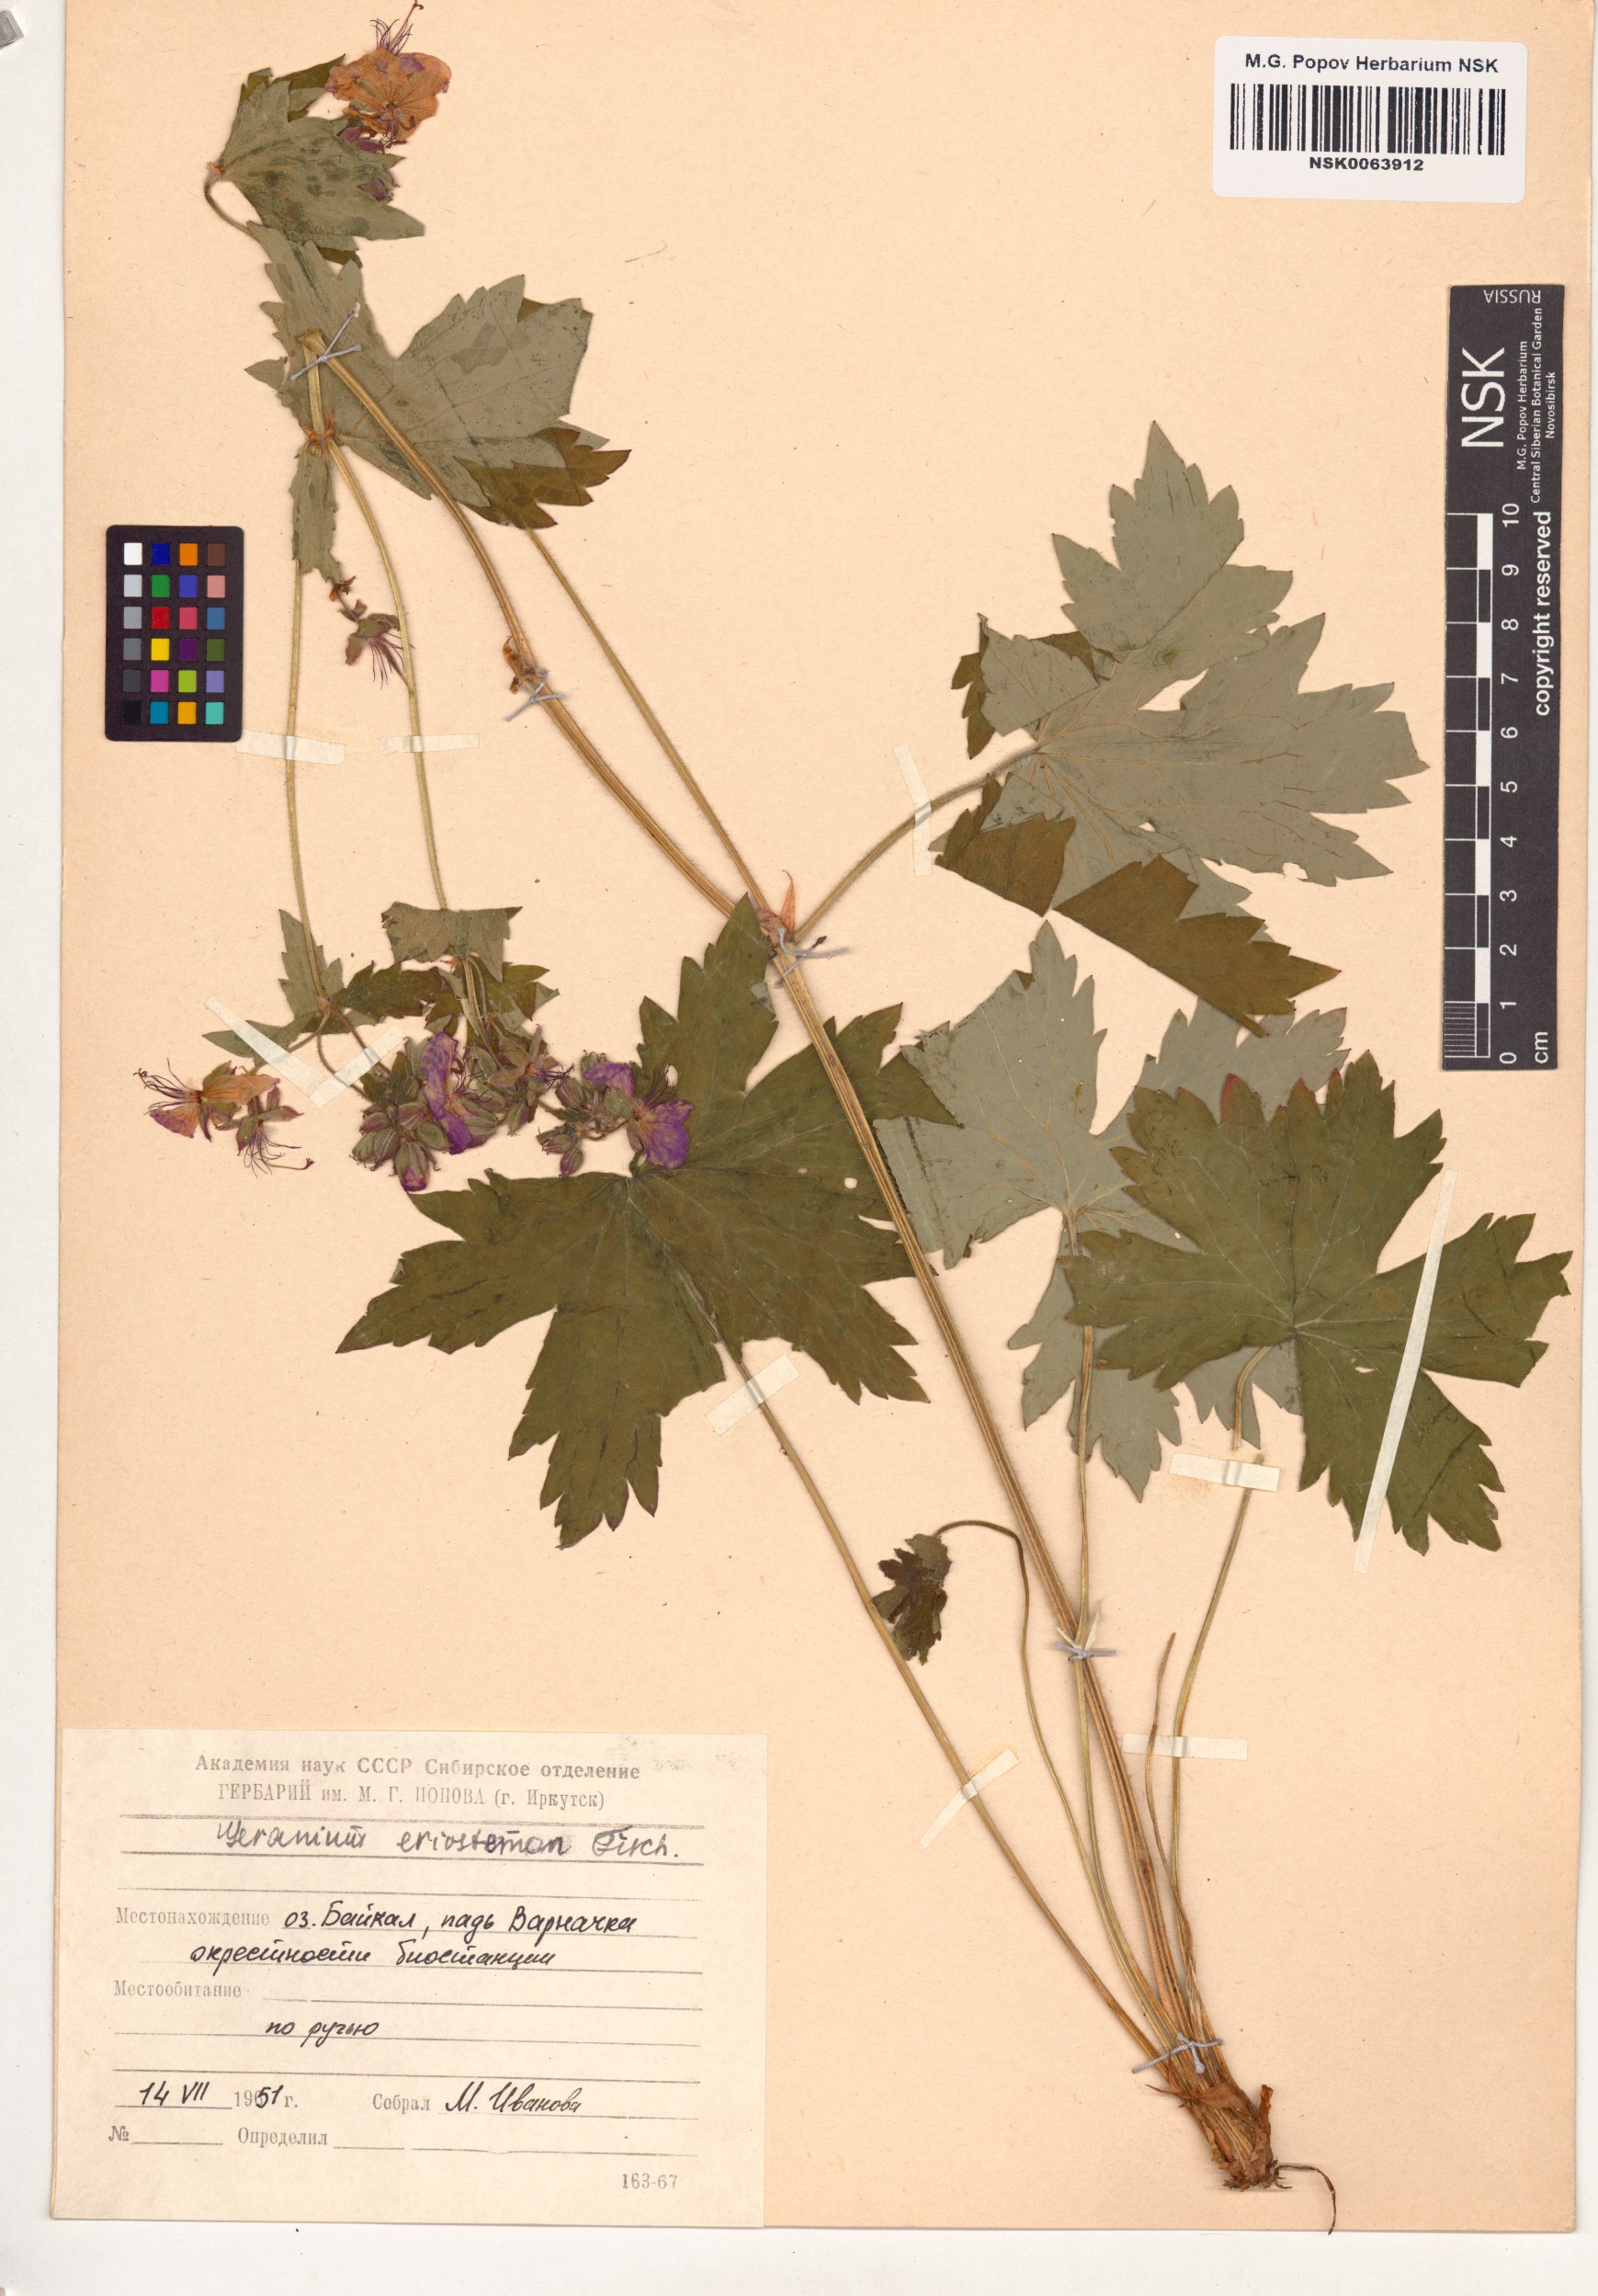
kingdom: Plantae
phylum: Tracheophyta
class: Magnoliopsida
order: Geraniales
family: Geraniaceae
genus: Geranium
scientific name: Geranium platyanthum
